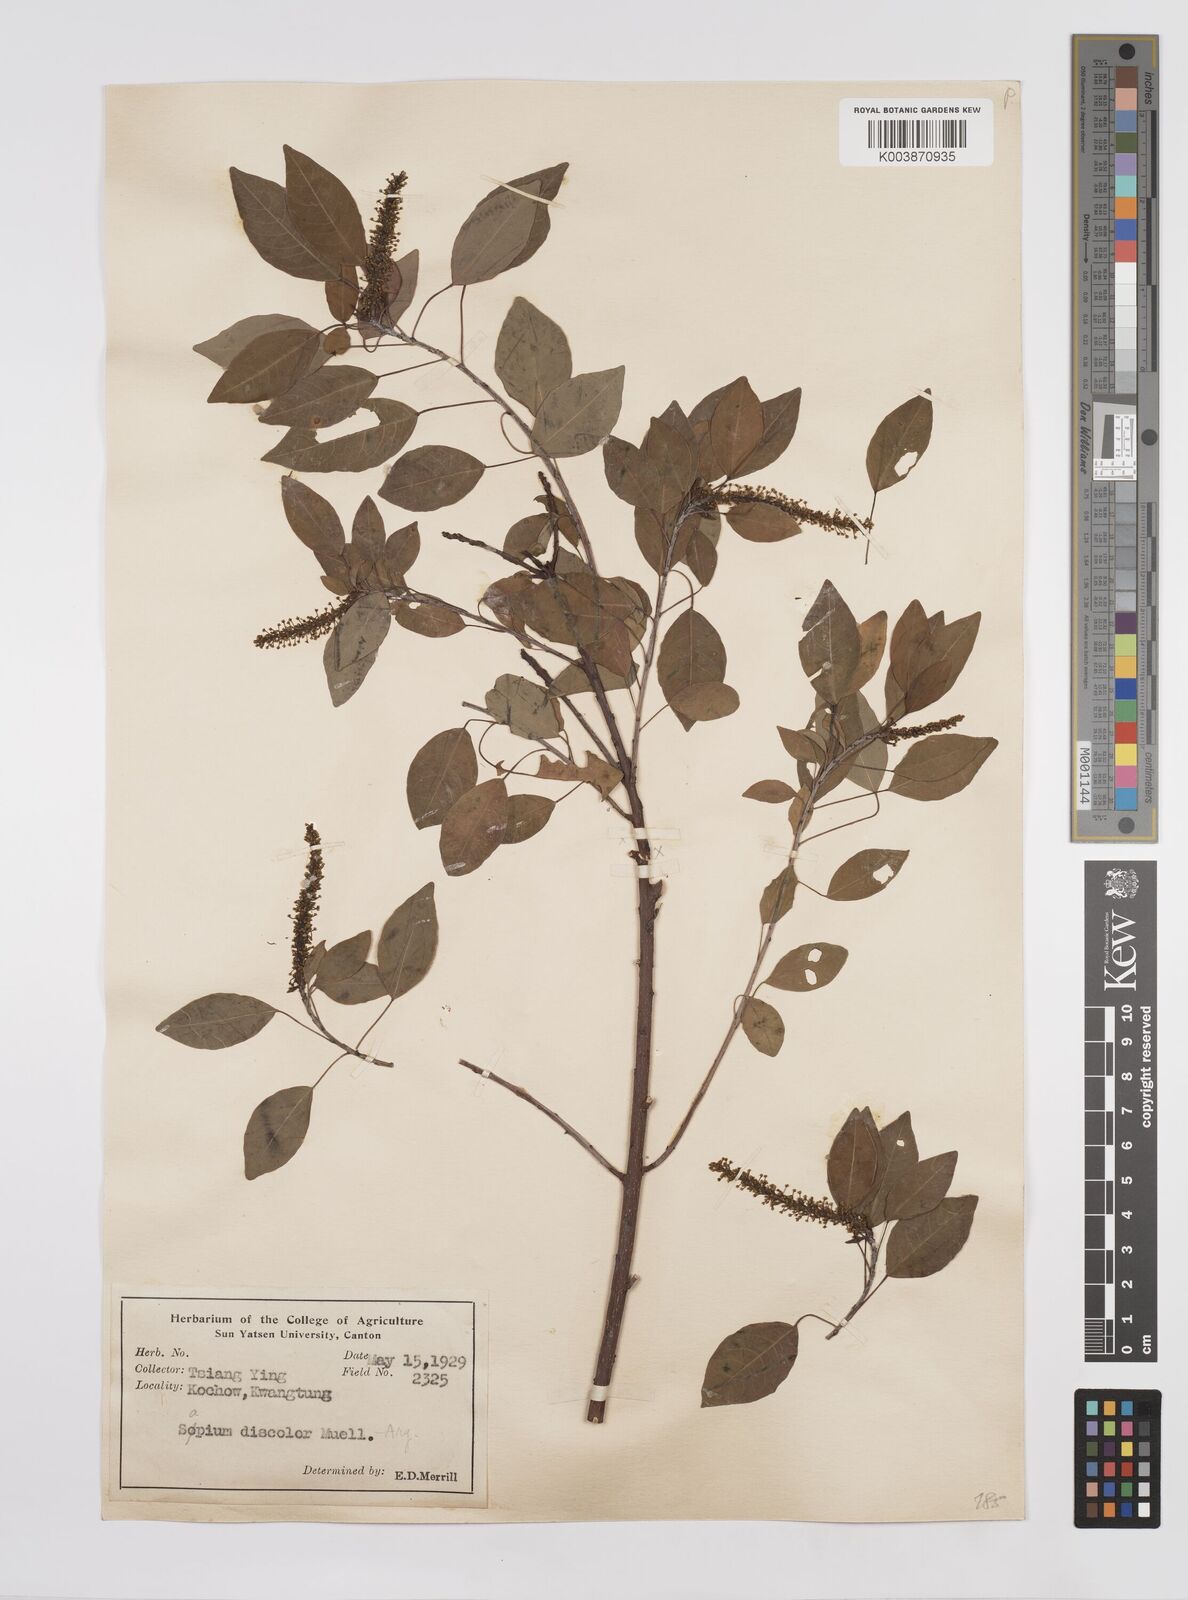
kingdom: Plantae
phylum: Tracheophyta
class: Magnoliopsida
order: Malpighiales
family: Euphorbiaceae
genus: Triadica
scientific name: Triadica cochinchinensis
